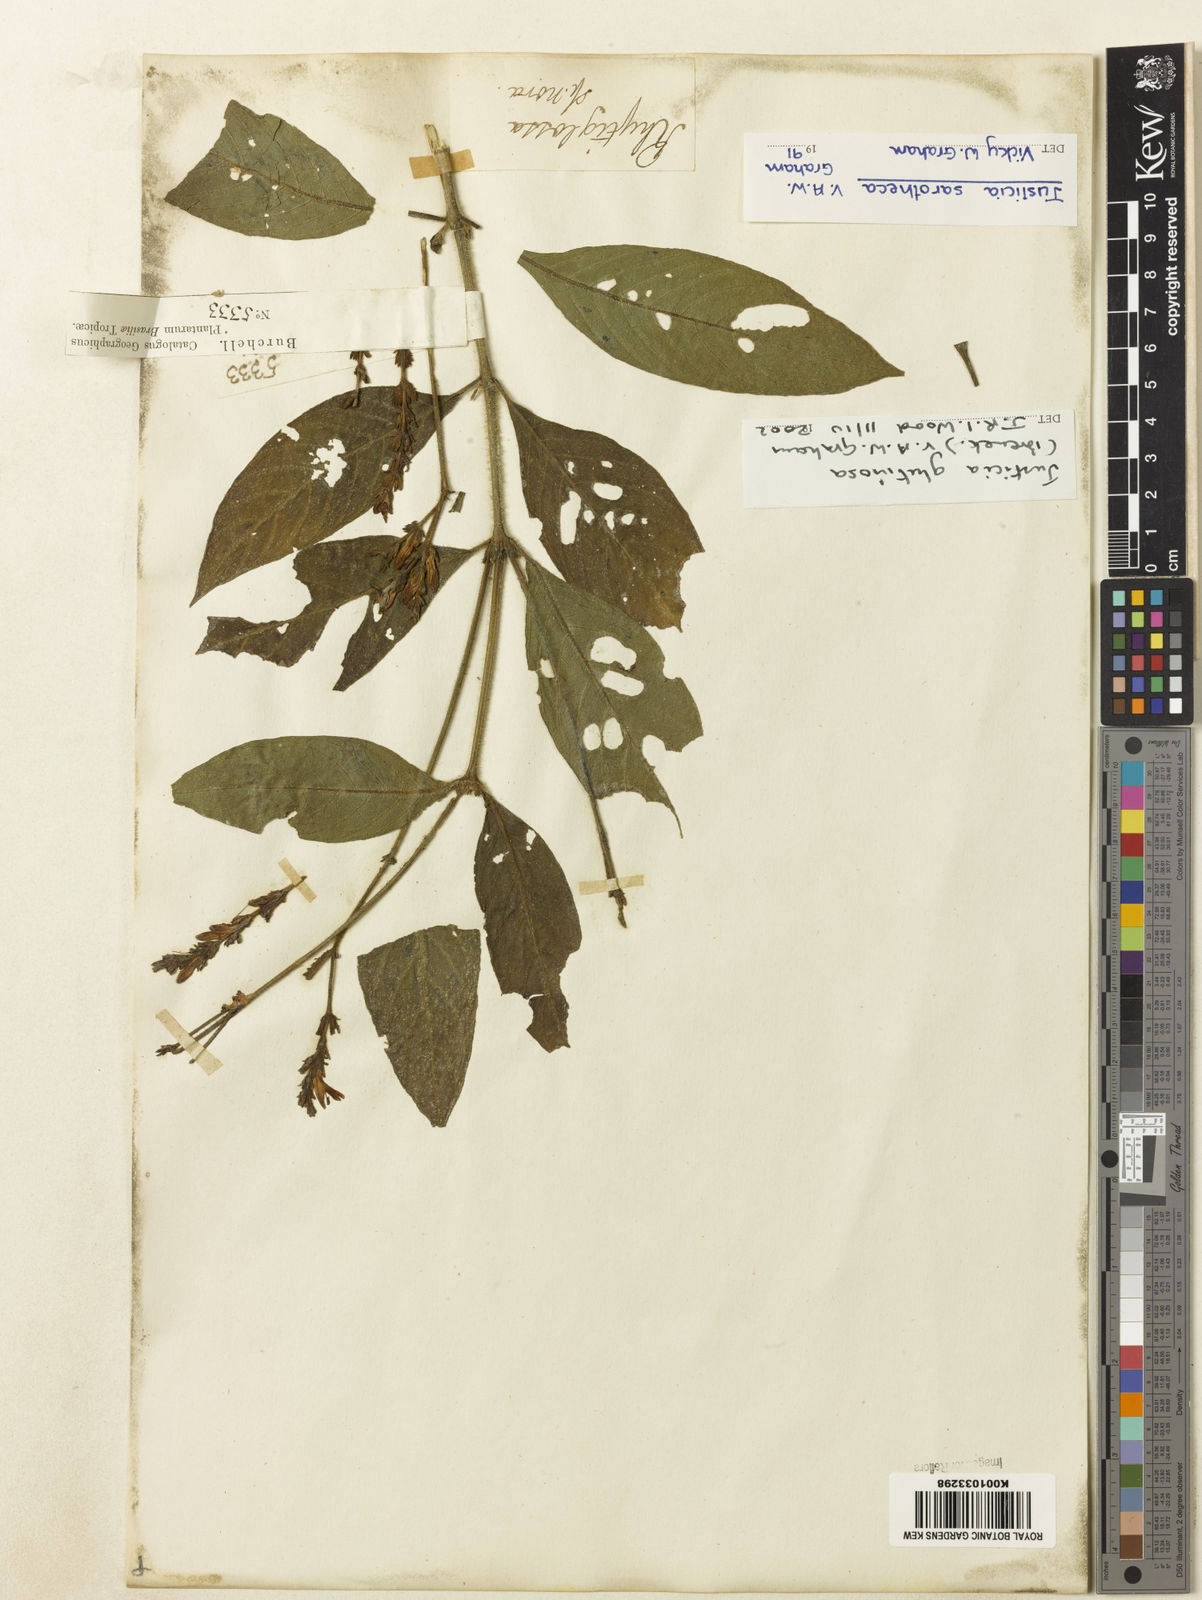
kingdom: Plantae
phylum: Tracheophyta
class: Magnoliopsida
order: Lamiales
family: Acanthaceae
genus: Justicia
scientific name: Justicia glutinosa
